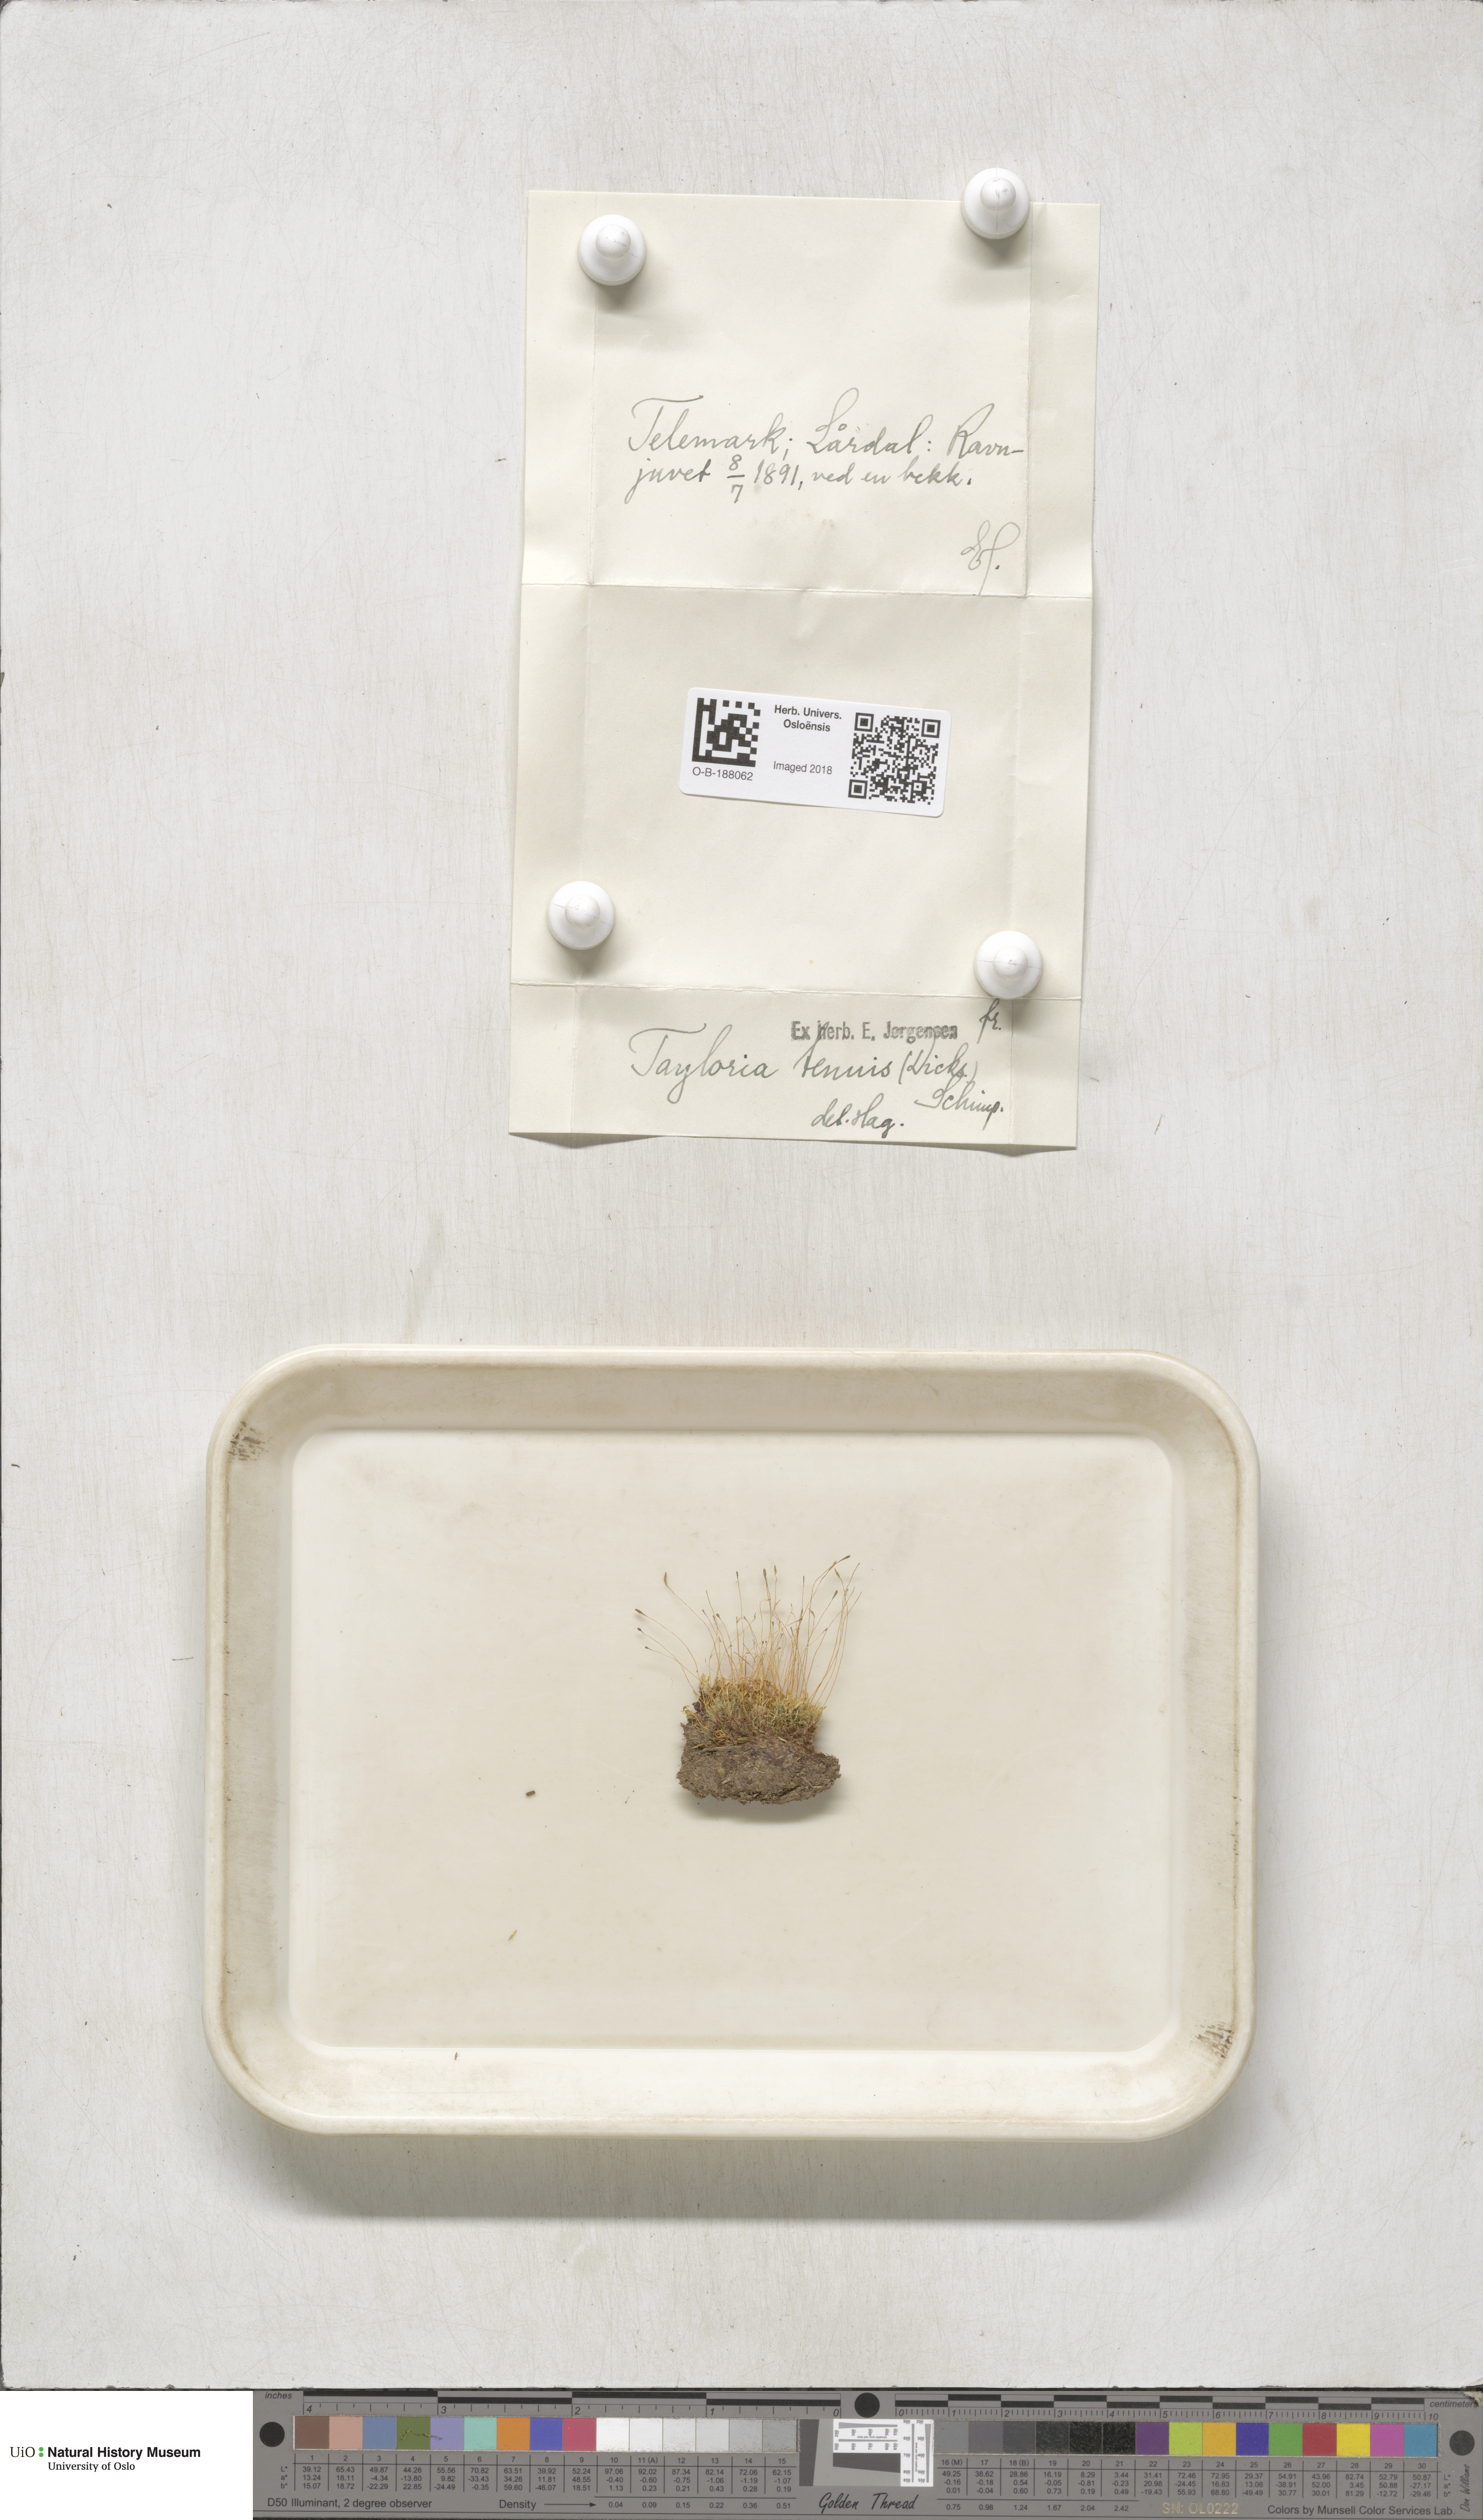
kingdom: Plantae
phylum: Bryophyta
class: Bryopsida
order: Splachnales
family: Splachnaceae
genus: Tayloria
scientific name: Tayloria tenuis
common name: Slender gland-moss
